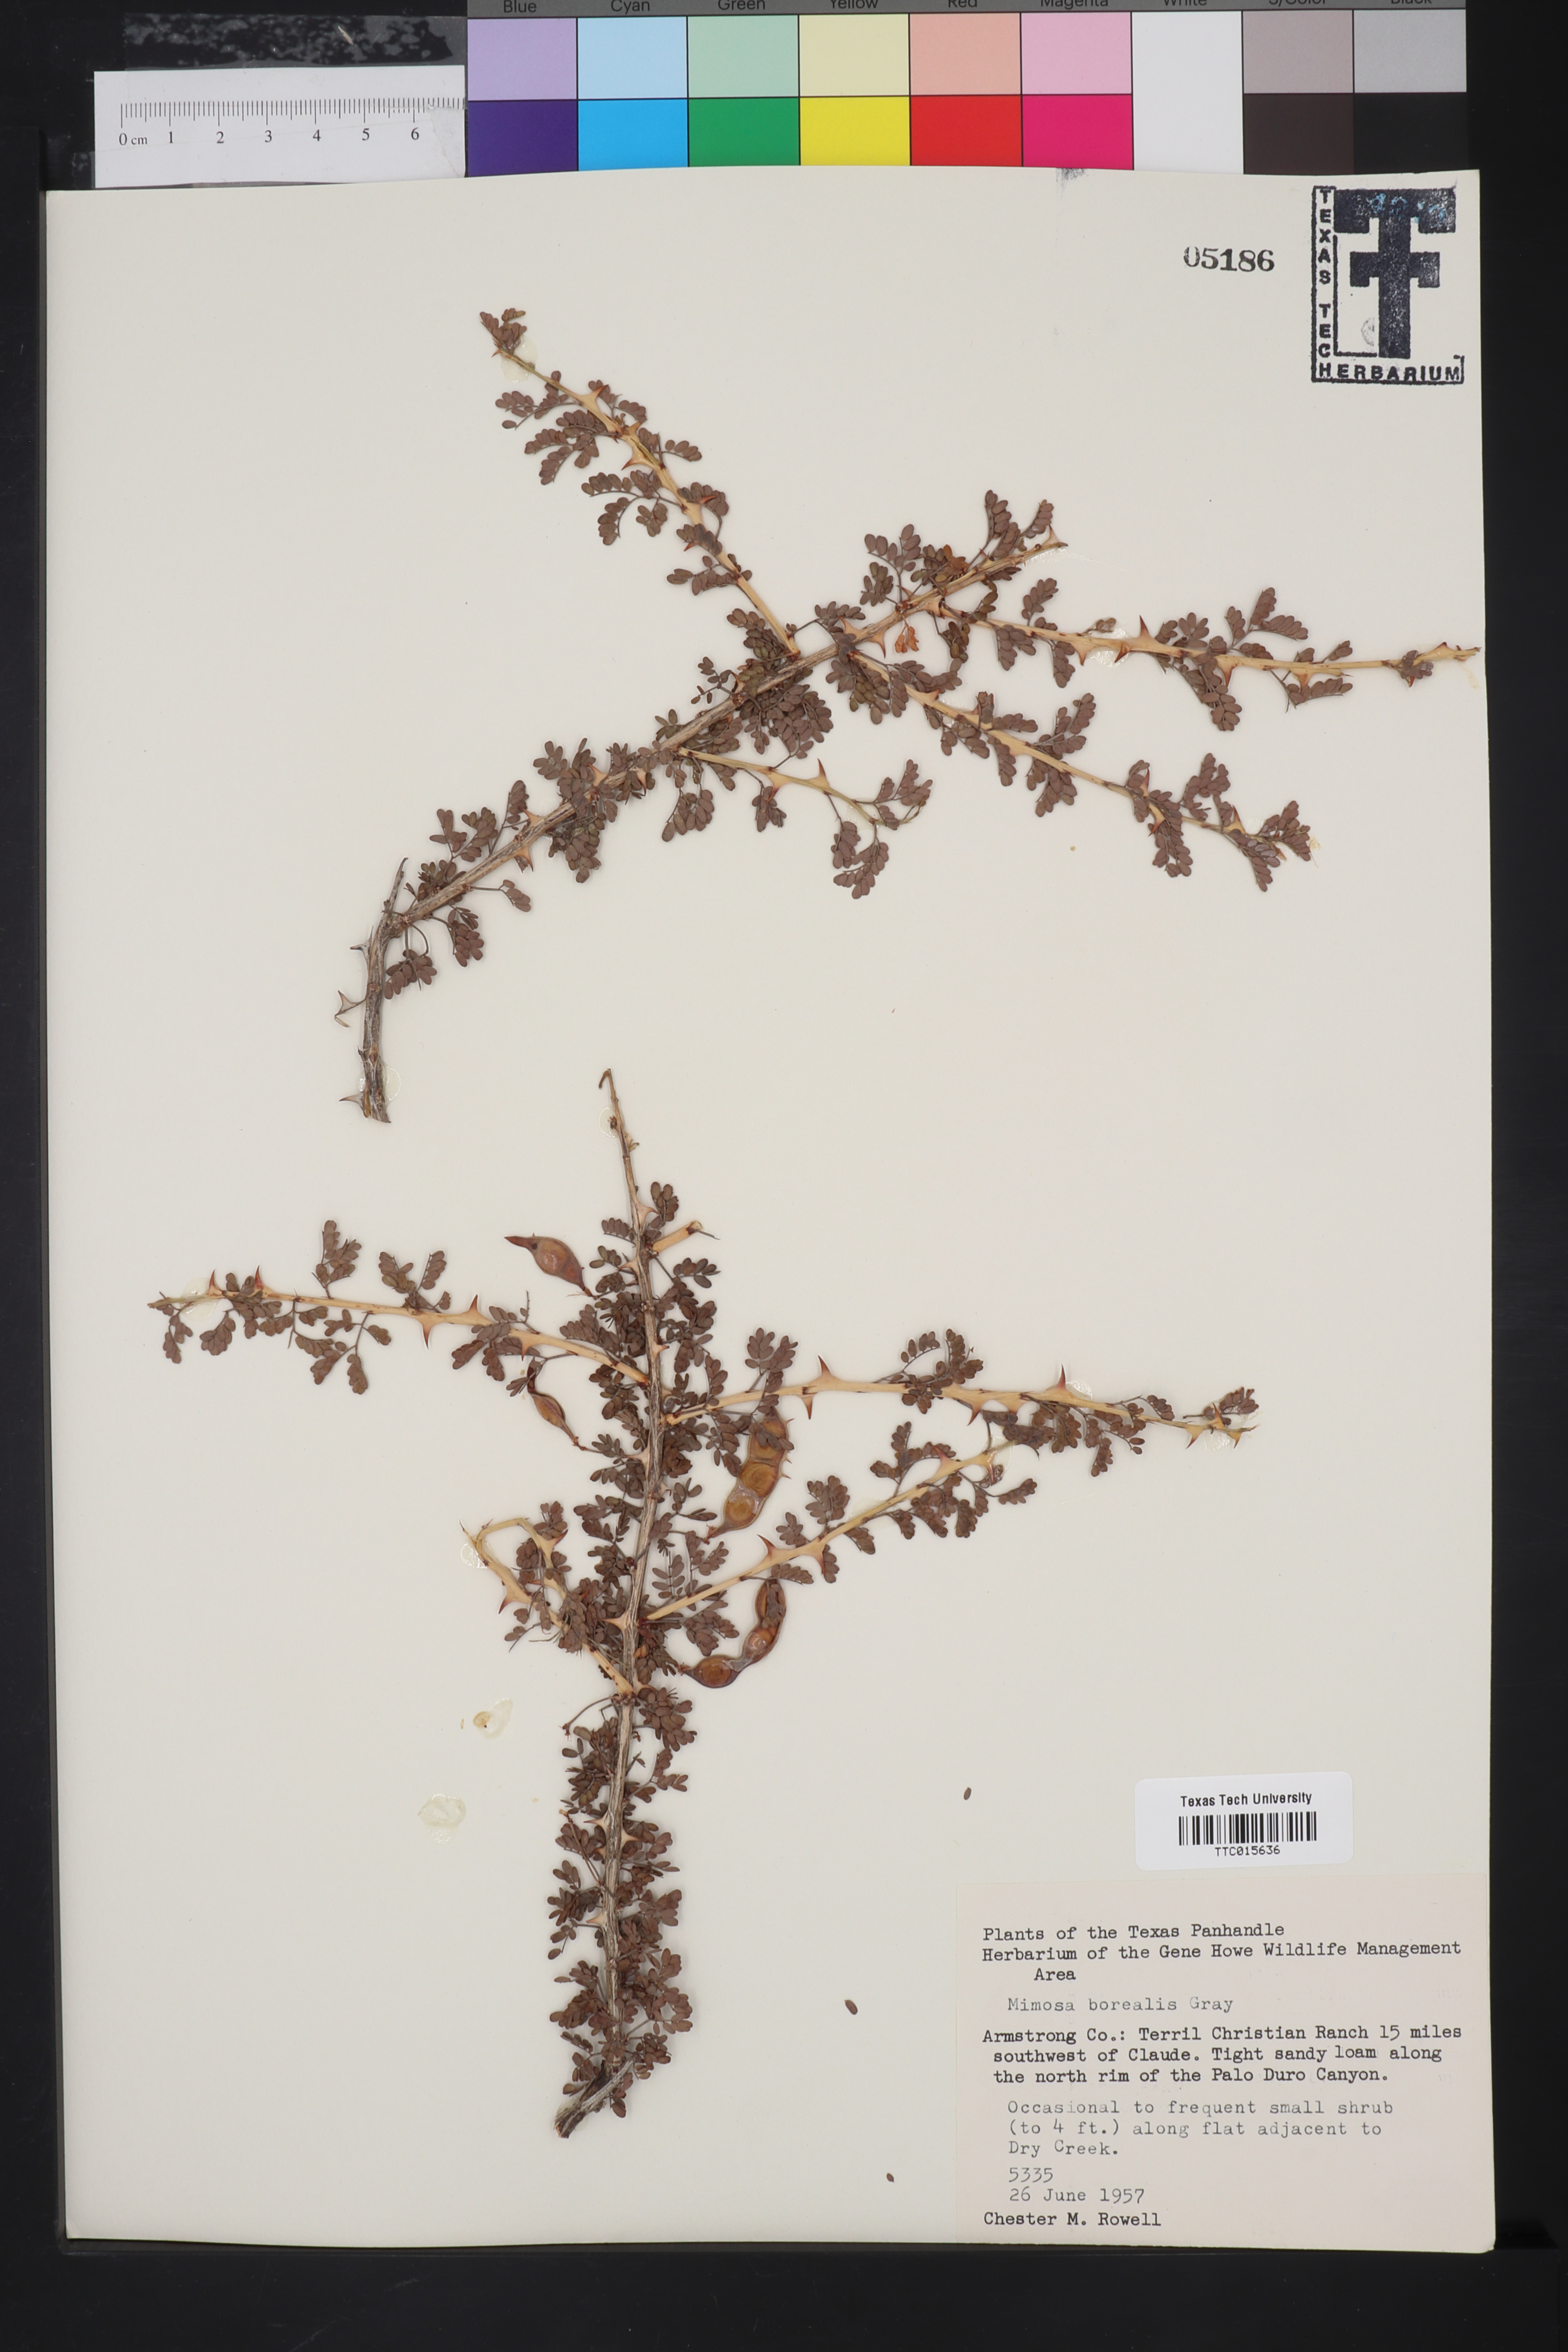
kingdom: Plantae
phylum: Tracheophyta
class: Magnoliopsida
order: Fabales
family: Fabaceae
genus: Mimosa
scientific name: Mimosa borealis
